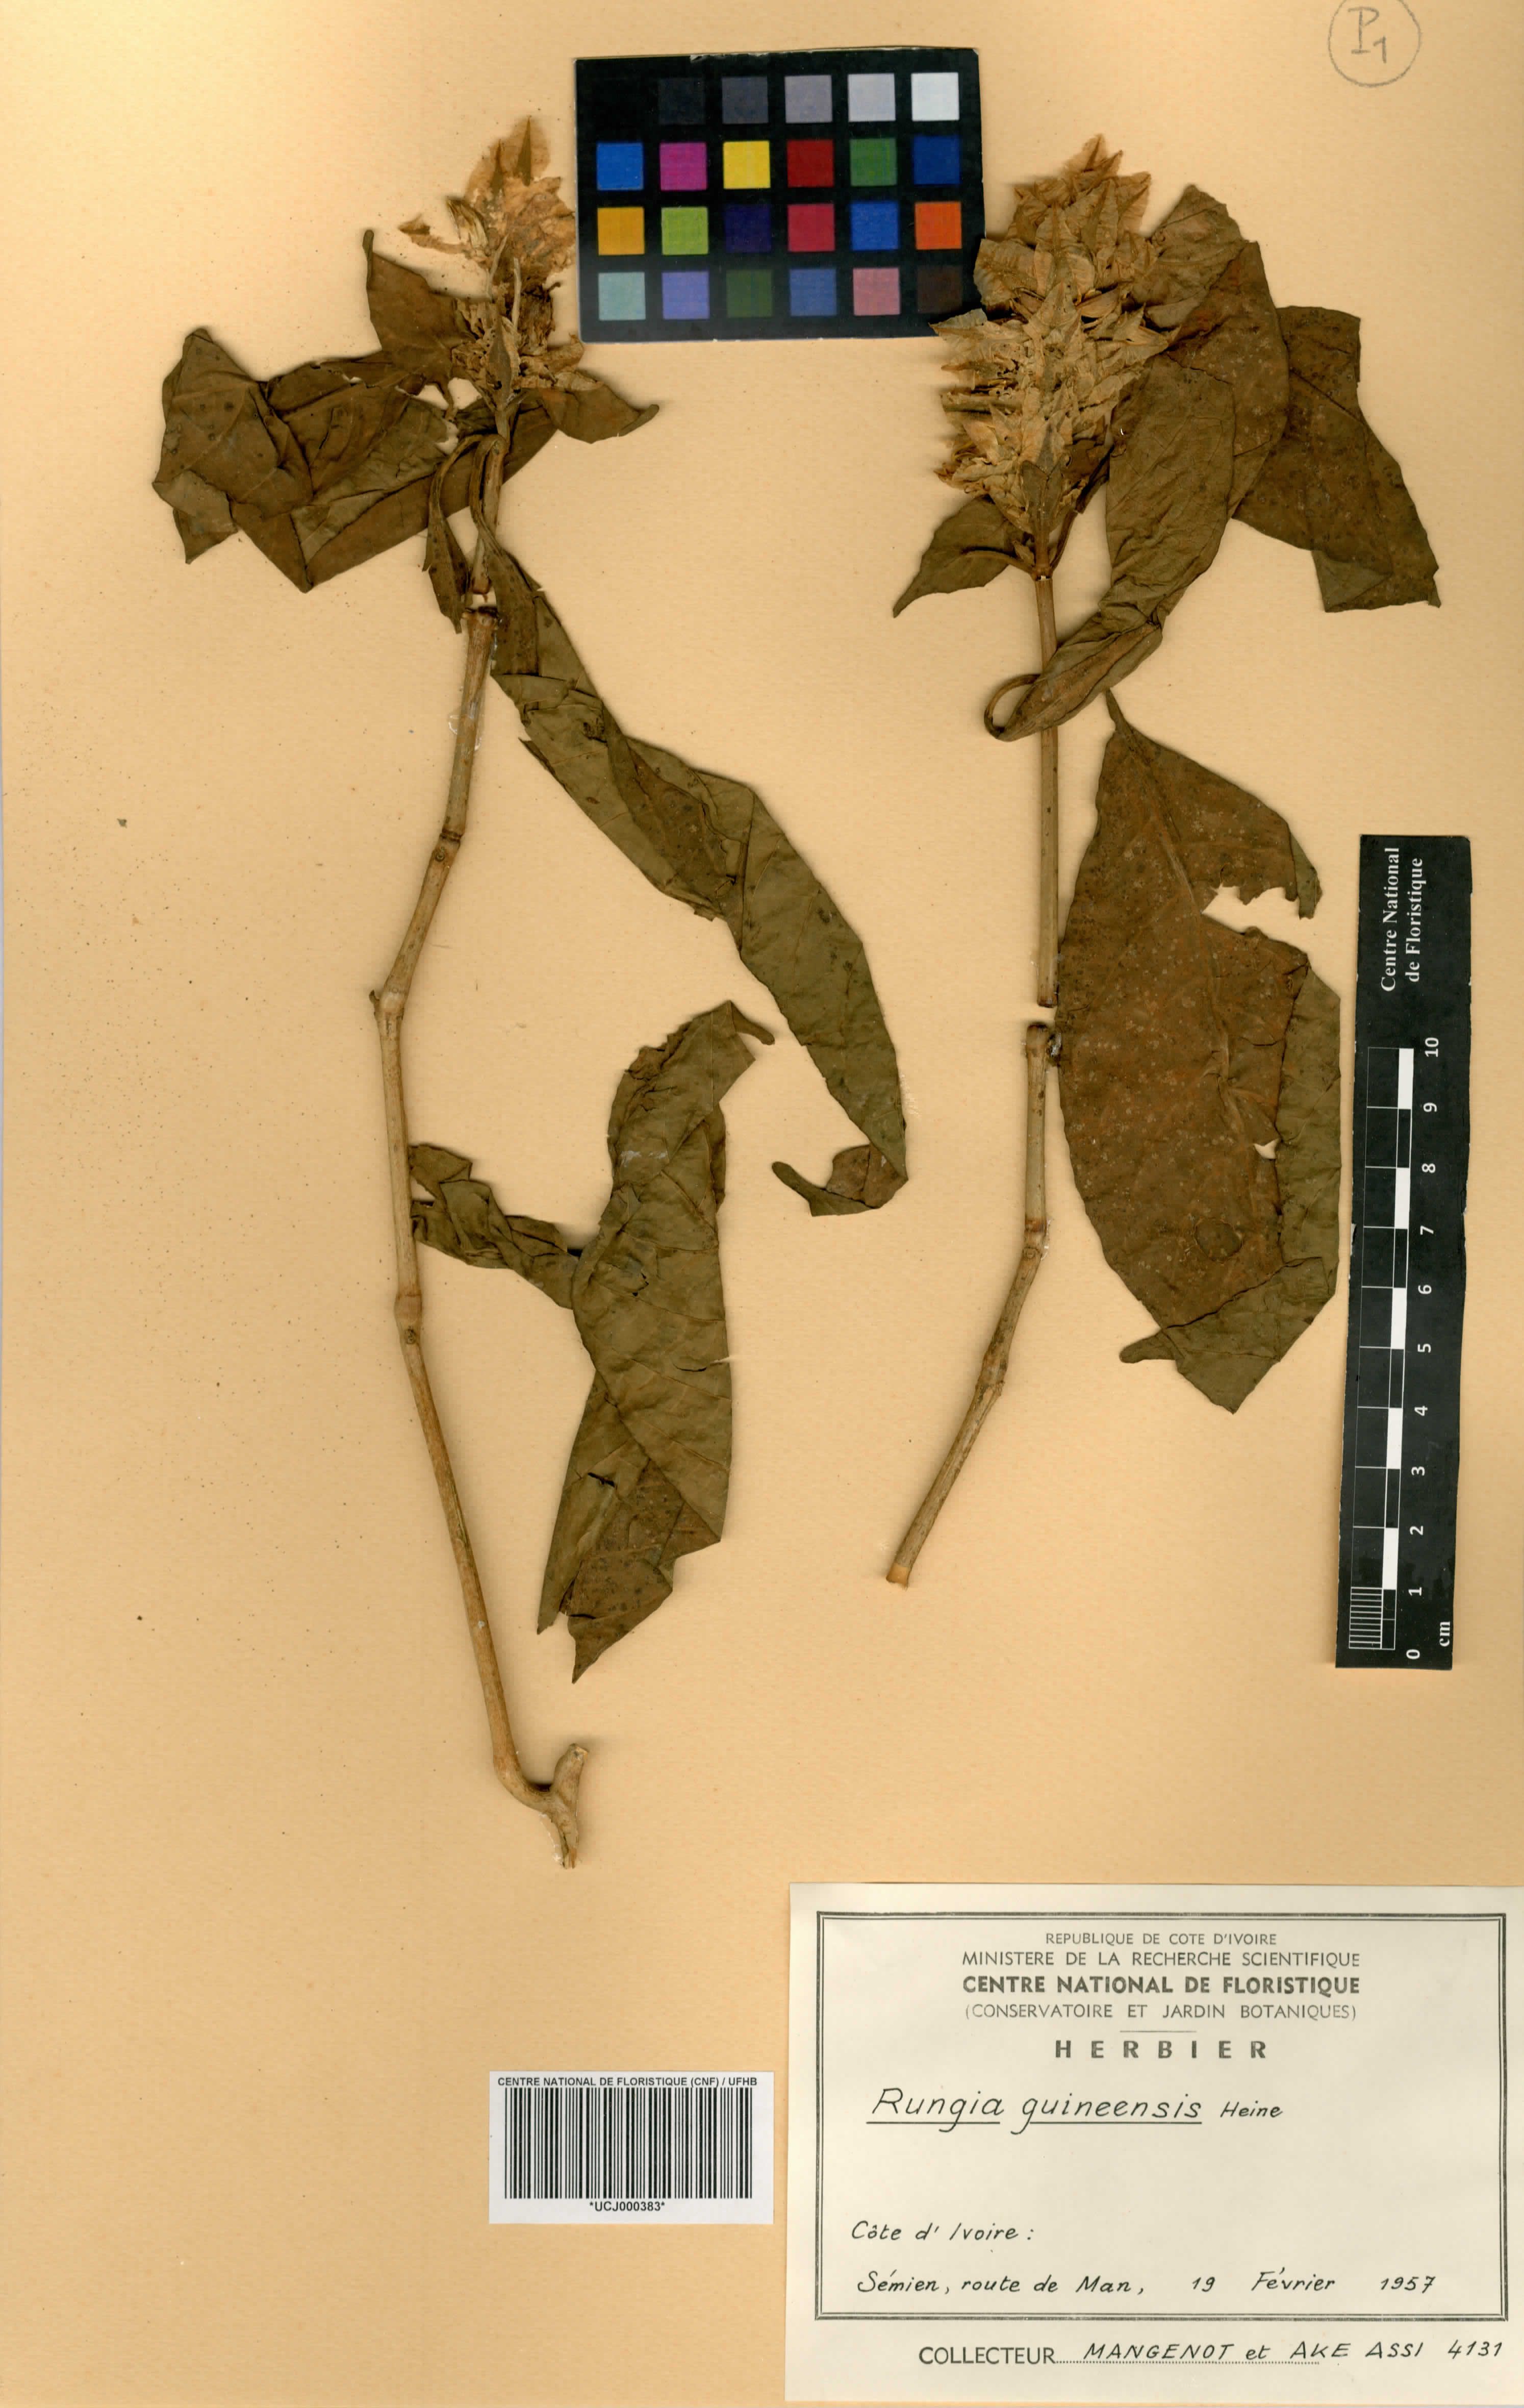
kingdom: Plantae
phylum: Tracheophyta
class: Magnoliopsida
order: Lamiales
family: Acanthaceae
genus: Justicia
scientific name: Justicia grandis
